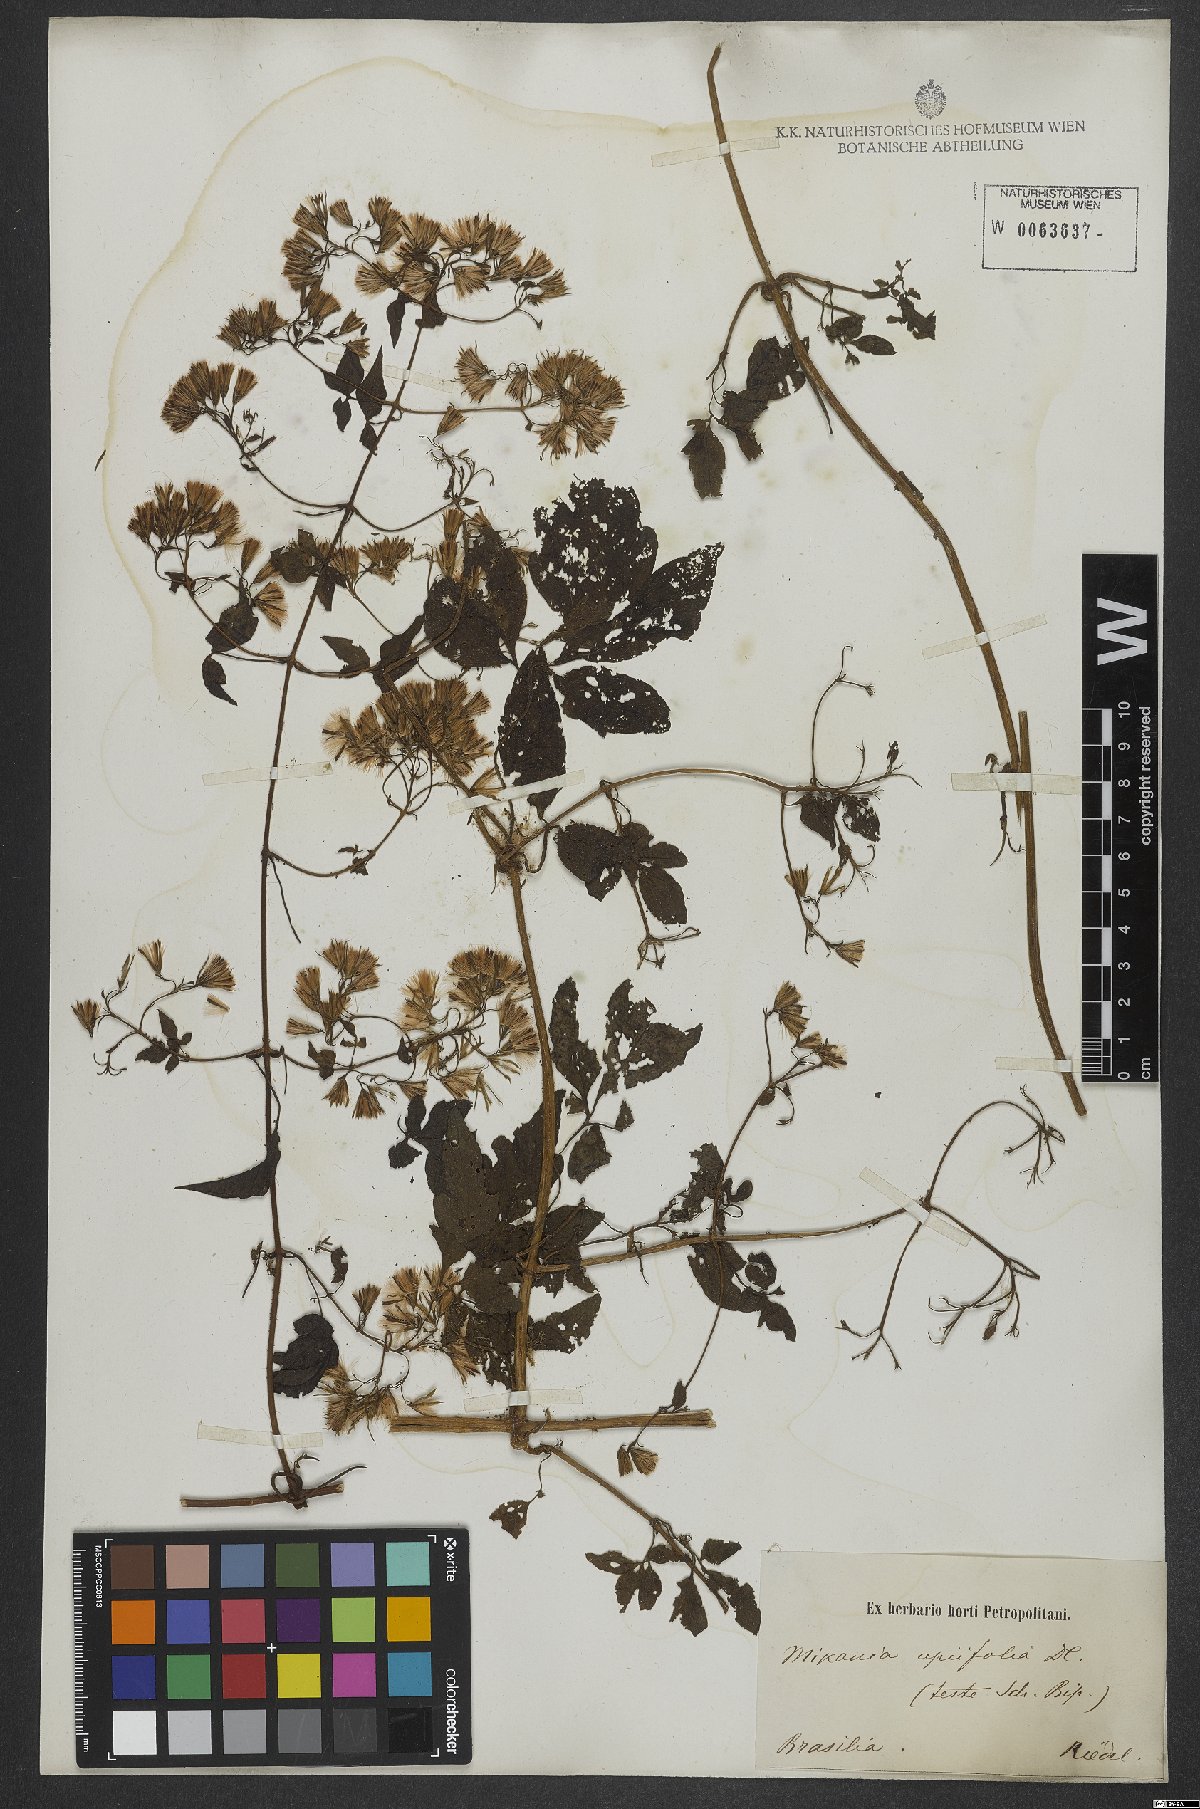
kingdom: Plantae
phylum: Tracheophyta
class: Magnoliopsida
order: Asterales
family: Asteraceae
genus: Mikania
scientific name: Mikania ternata
